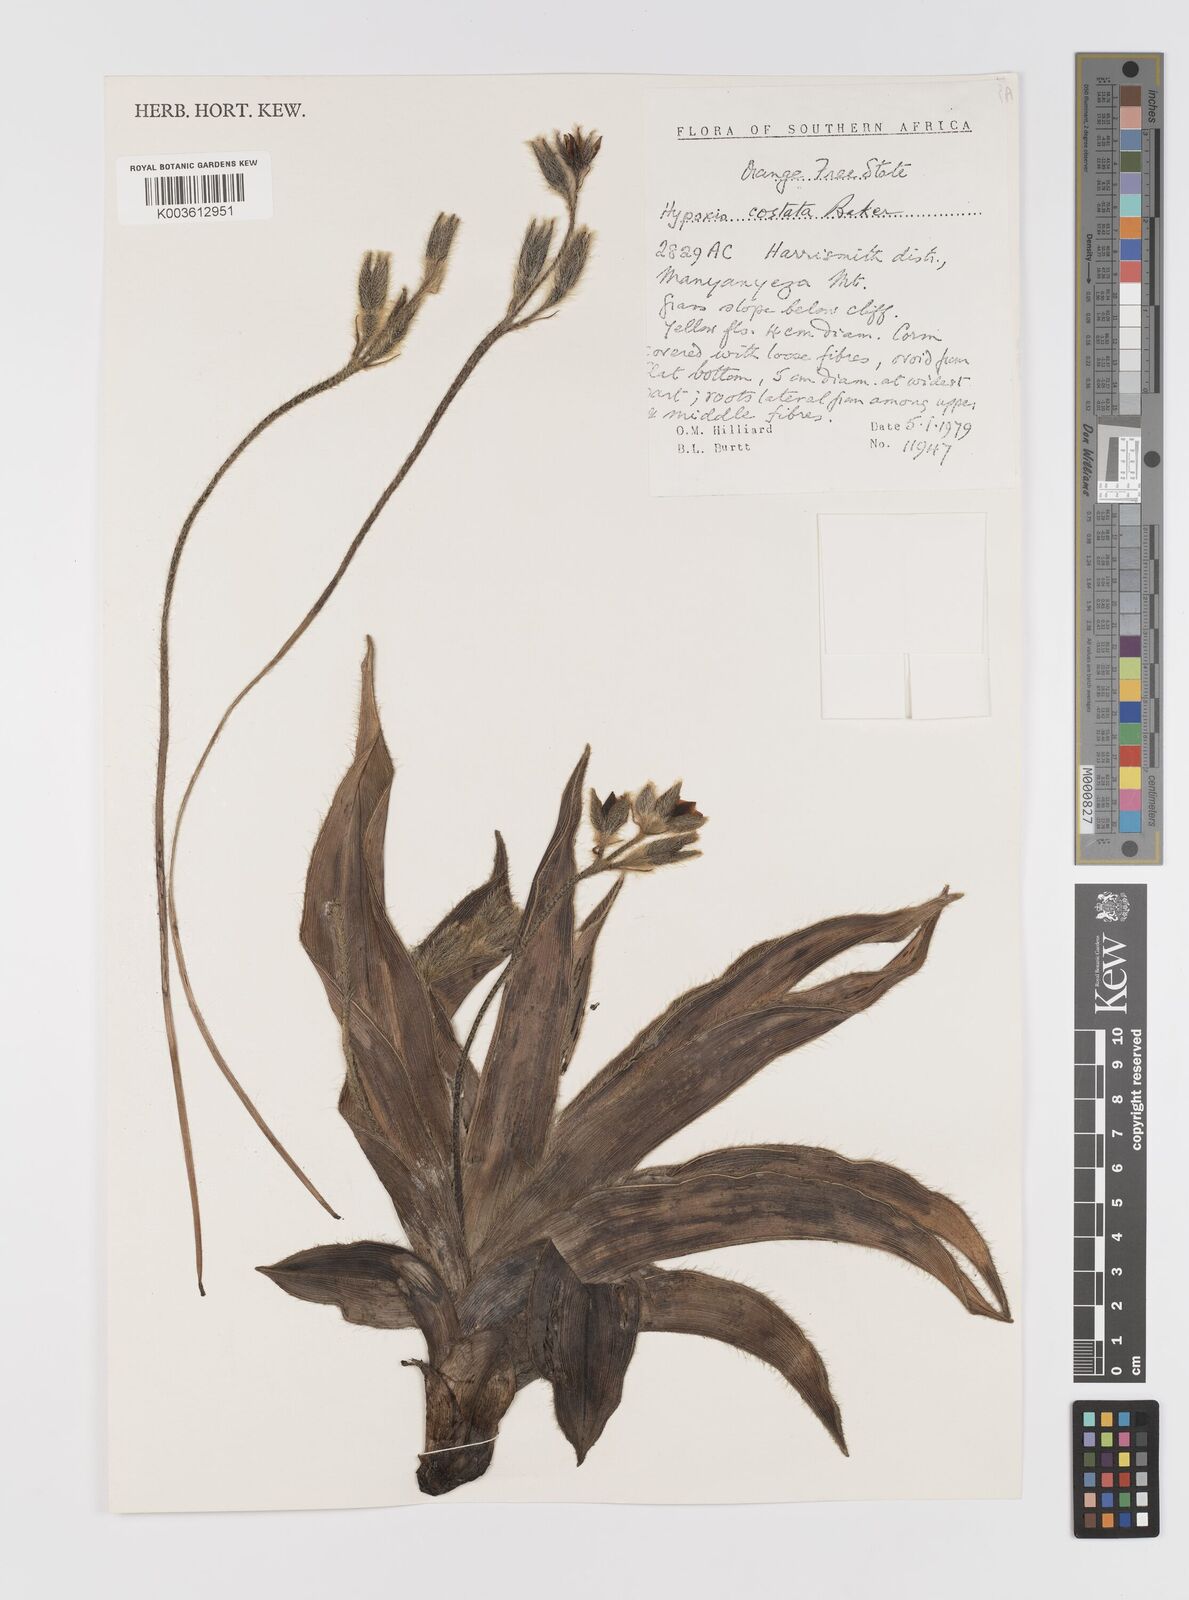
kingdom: Plantae
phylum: Tracheophyta
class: Liliopsida
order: Asparagales
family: Hypoxidaceae
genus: Hypoxis
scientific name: Hypoxis costata
